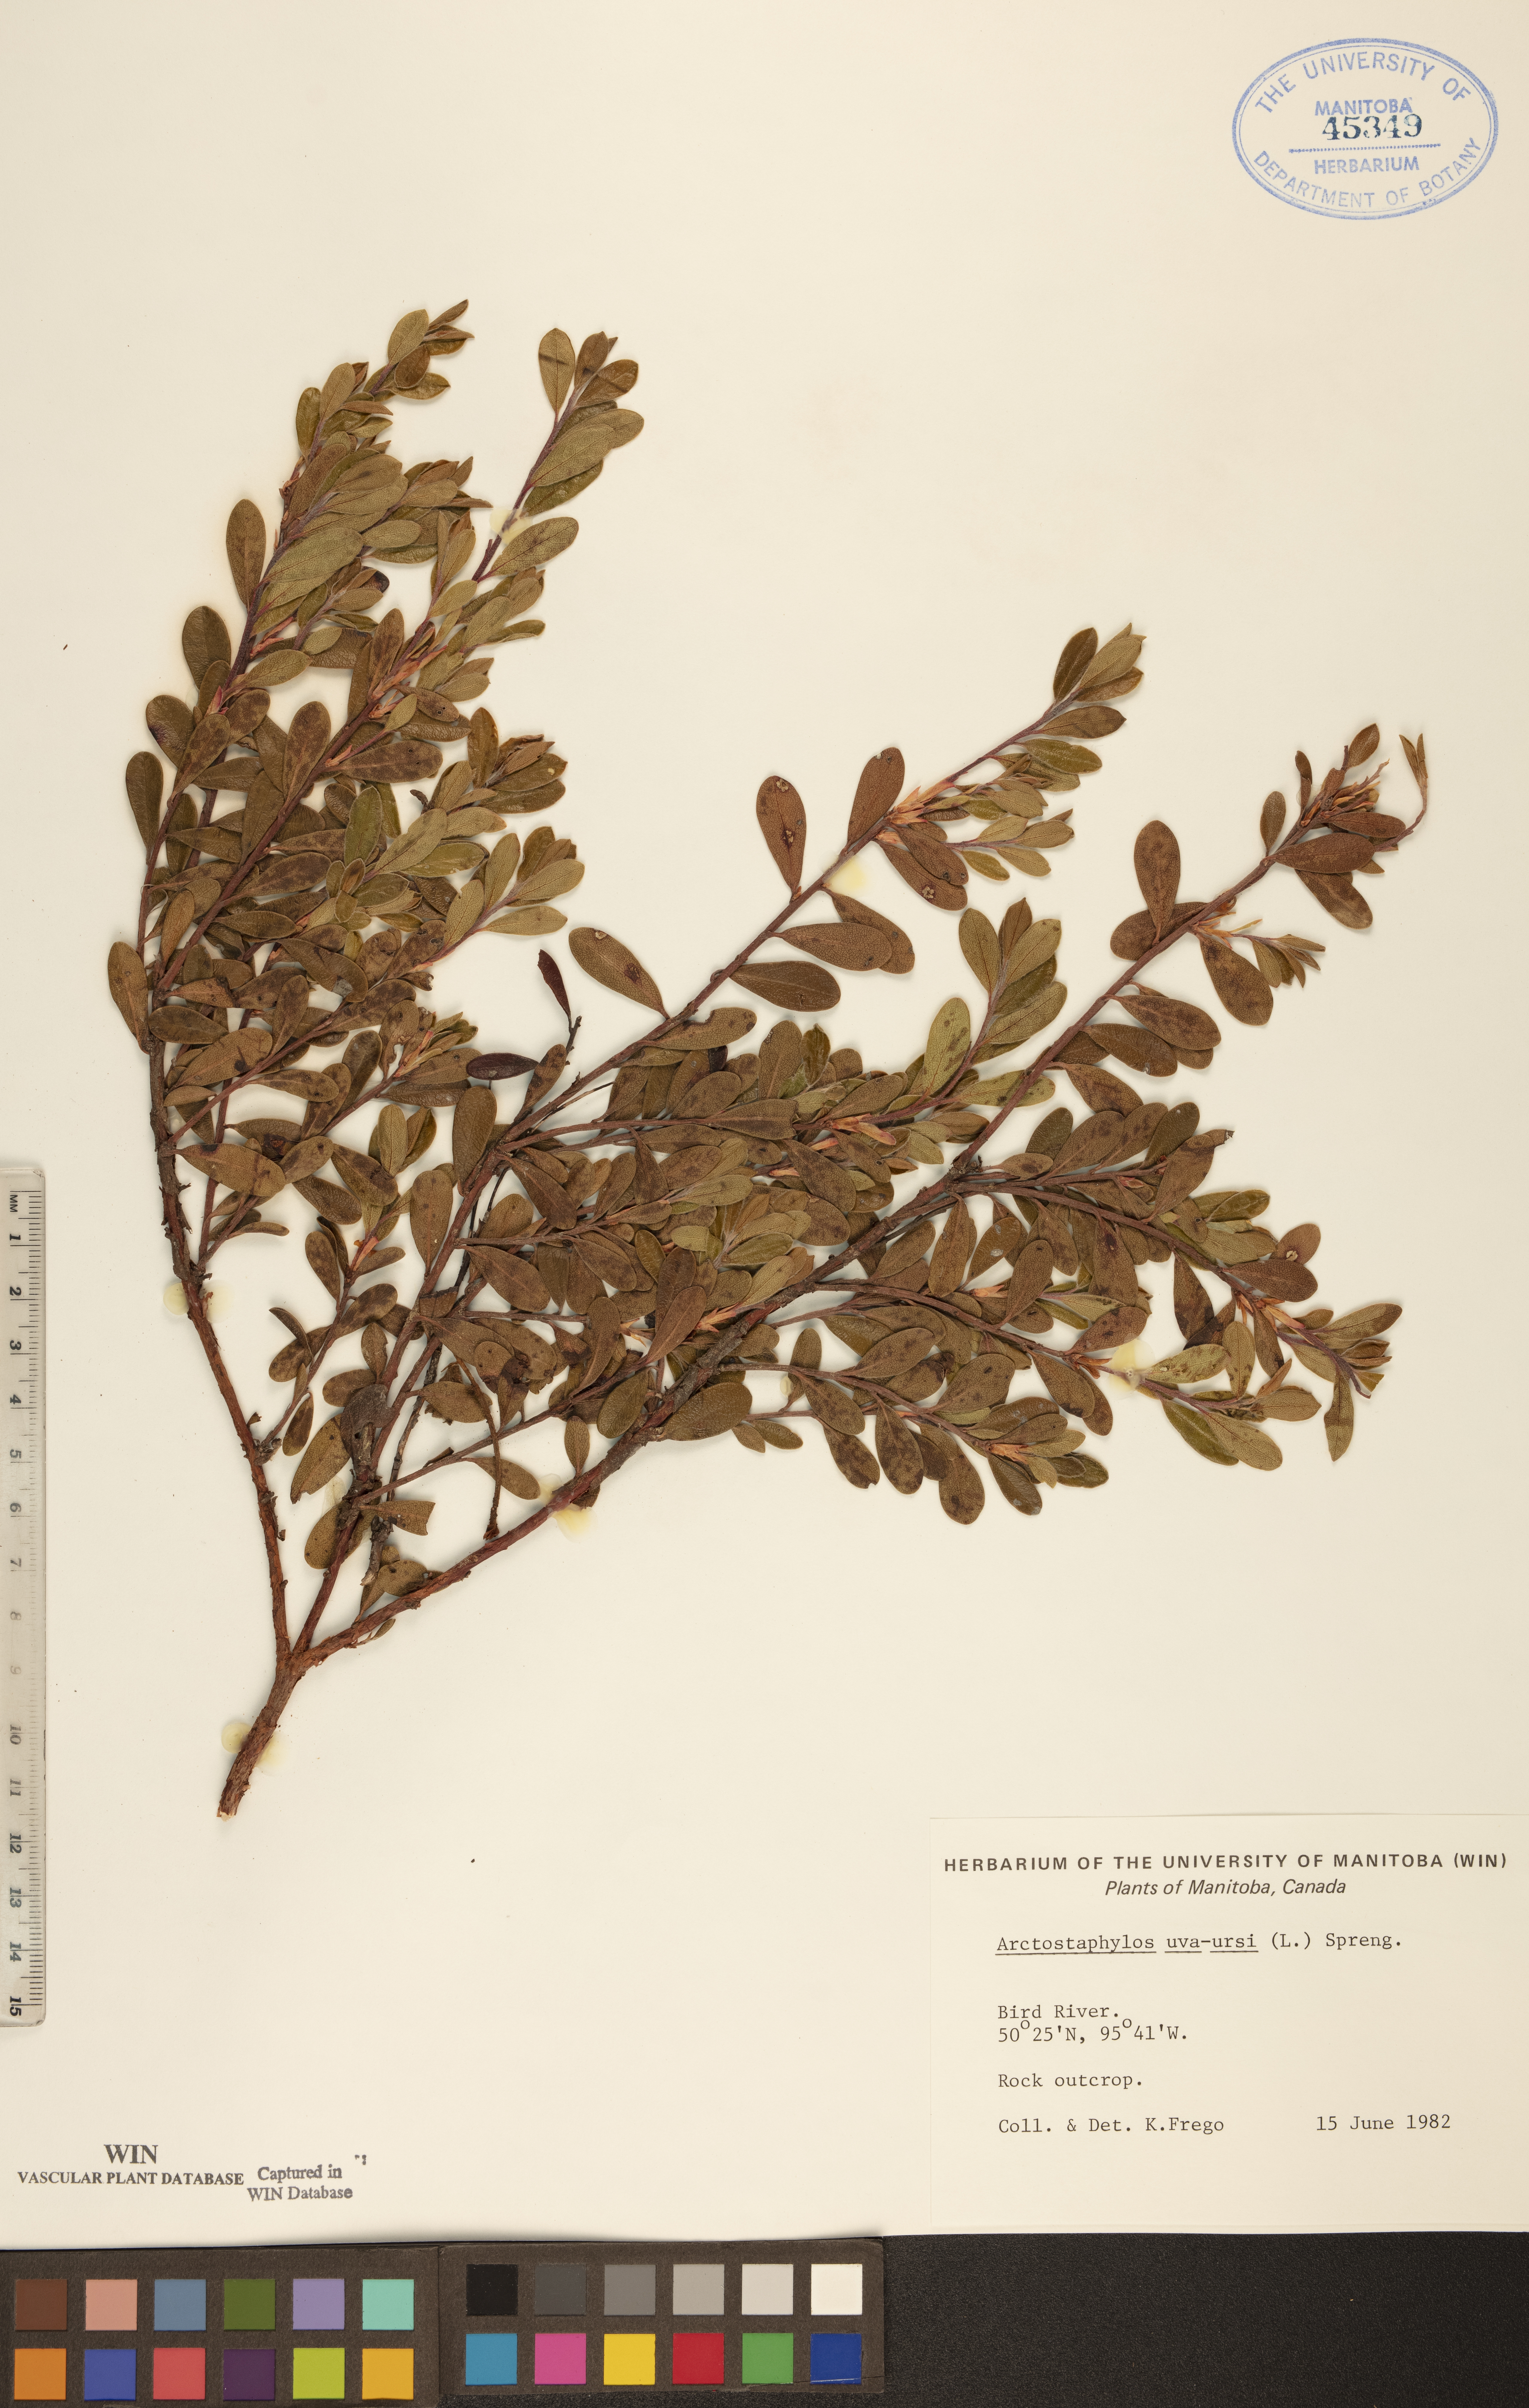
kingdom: Plantae
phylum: Tracheophyta
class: Magnoliopsida
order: Ericales
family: Ericaceae
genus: Arctostaphylos
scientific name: Arctostaphylos uva-ursi
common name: Bearberry
